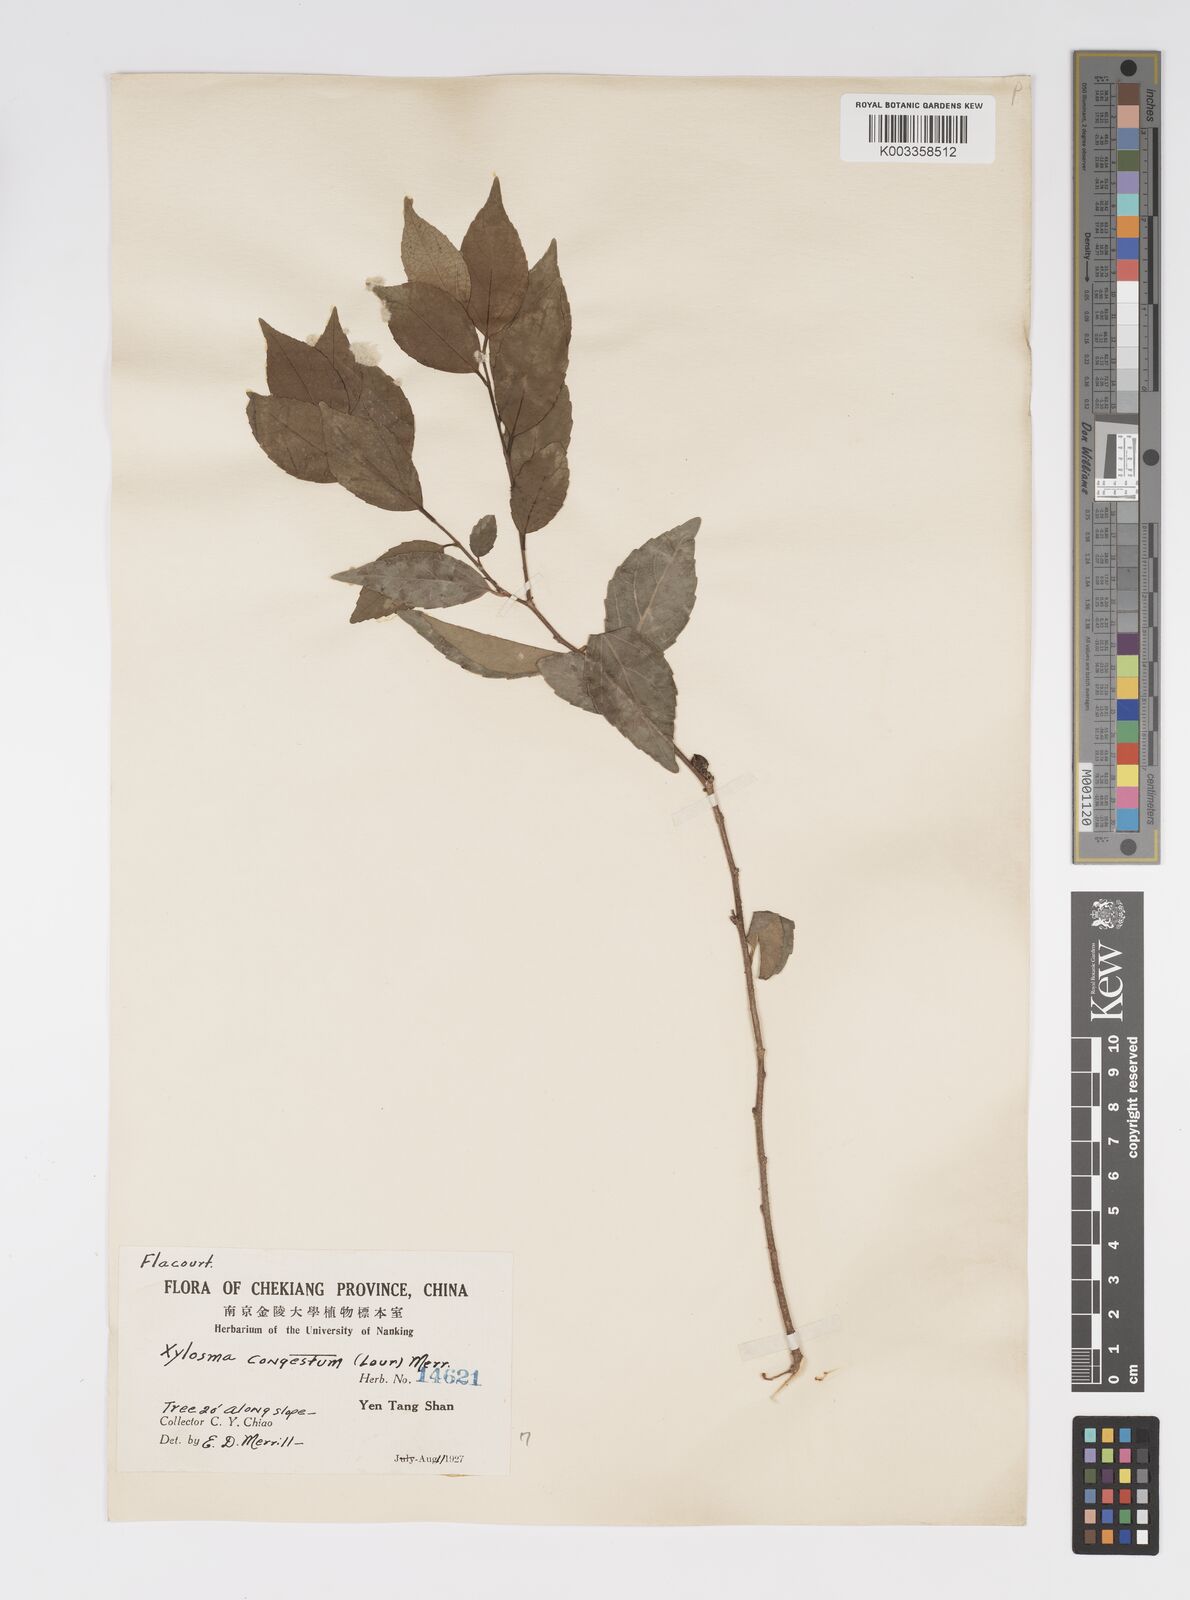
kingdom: Plantae
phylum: Tracheophyta
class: Magnoliopsida
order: Malpighiales
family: Salicaceae
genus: Xylosma
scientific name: Xylosma racemosum
